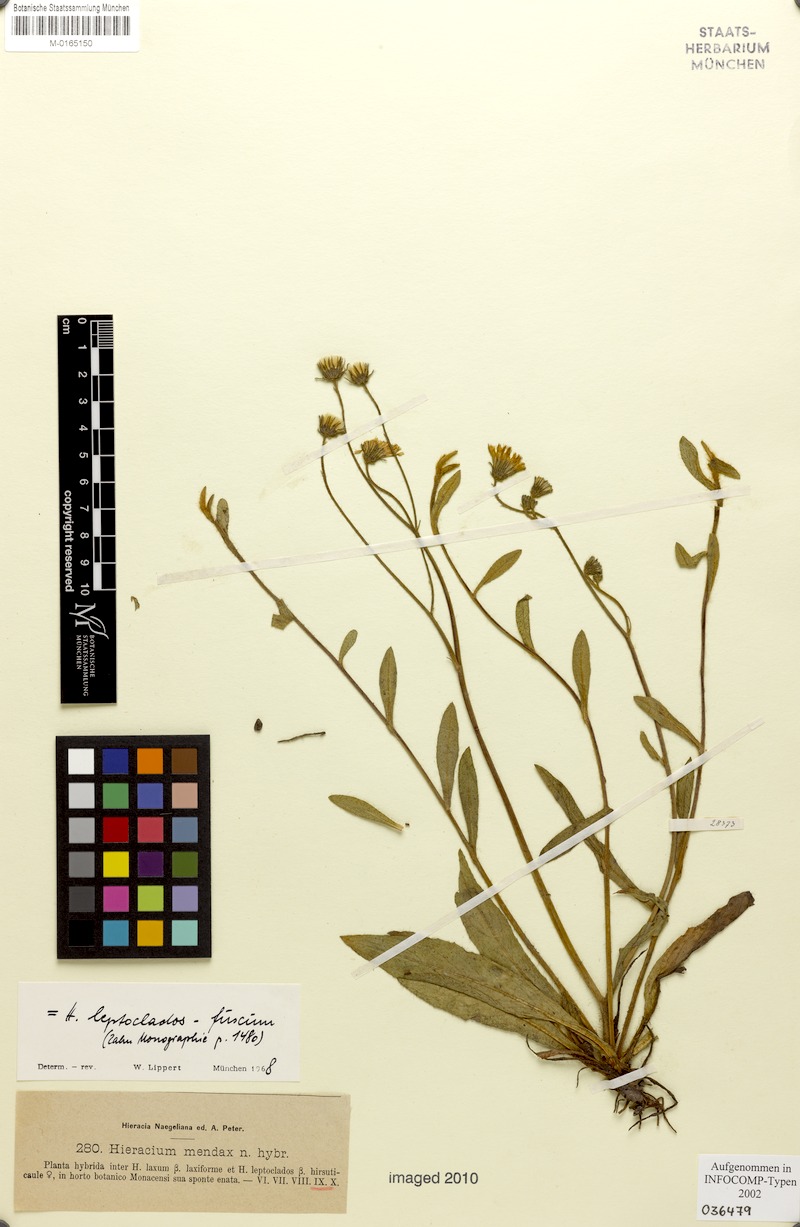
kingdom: Plantae
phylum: Tracheophyta
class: Magnoliopsida
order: Asterales
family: Asteraceae
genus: Hieracium
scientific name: Hieracium mendax
